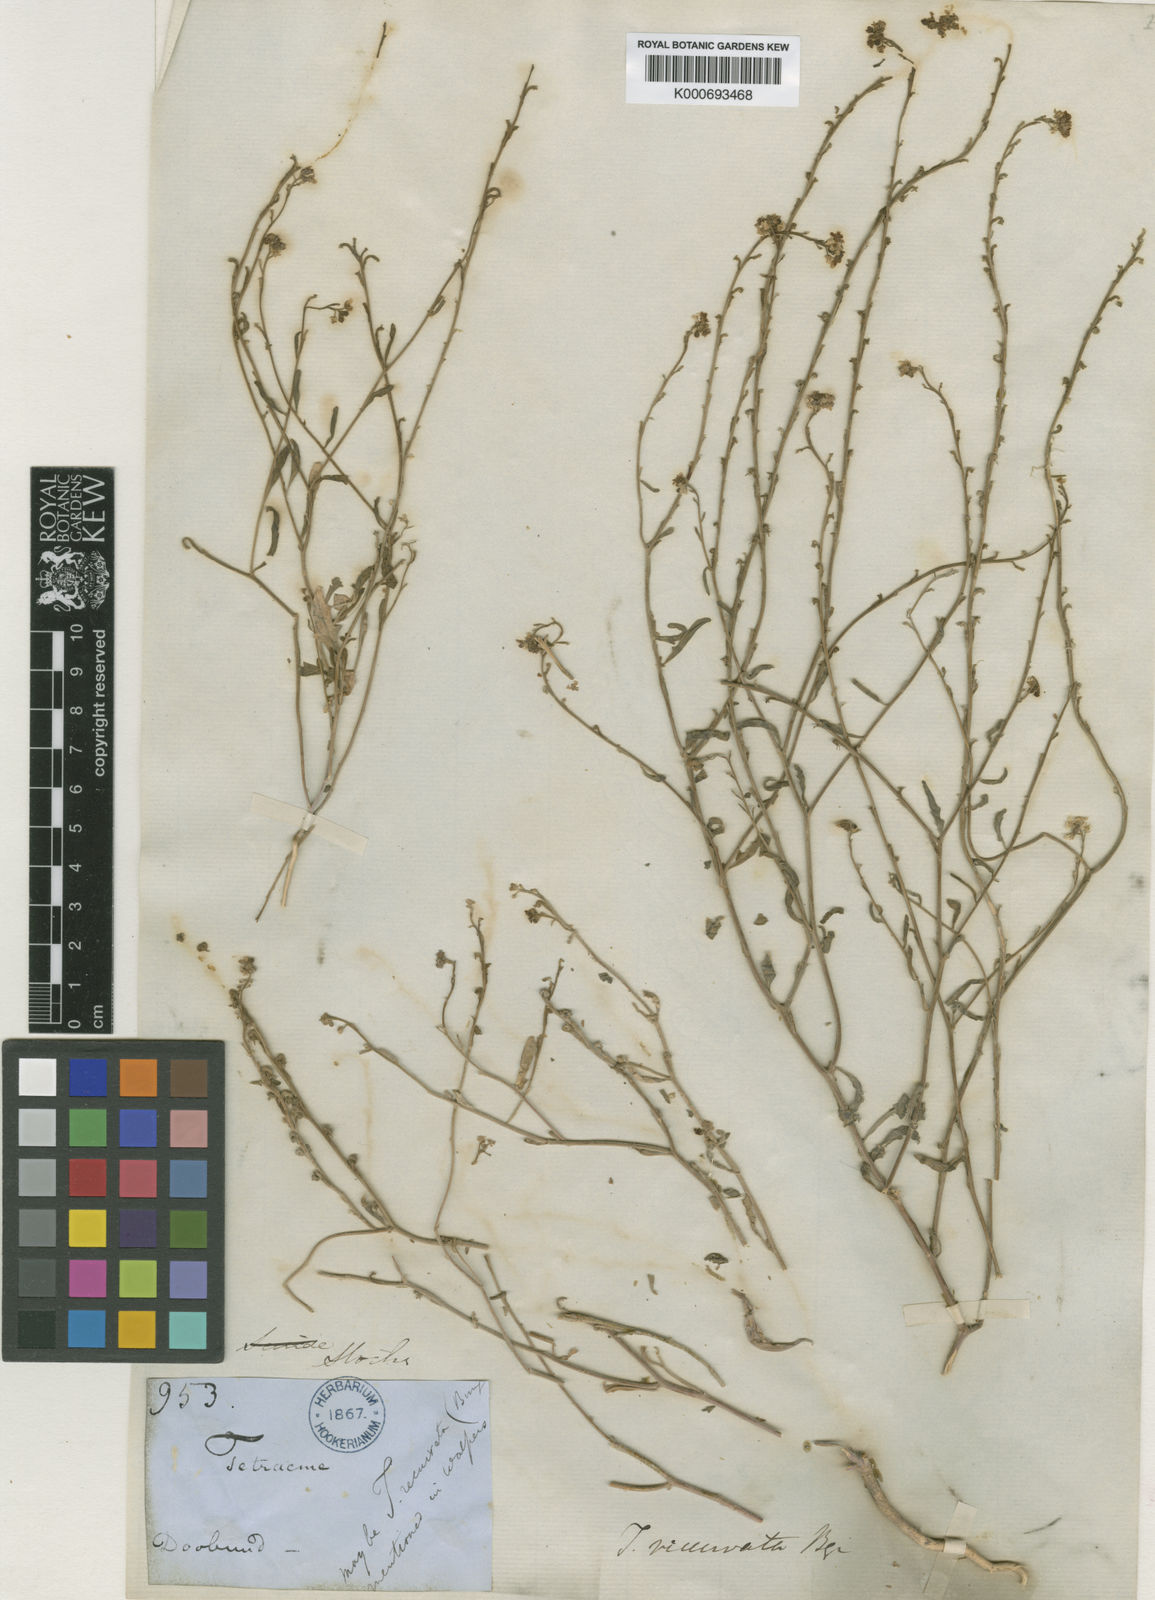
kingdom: Plantae
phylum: Tracheophyta
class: Magnoliopsida
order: Brassicales
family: Brassicaceae
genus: Tetracme
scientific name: Tetracme contorta
